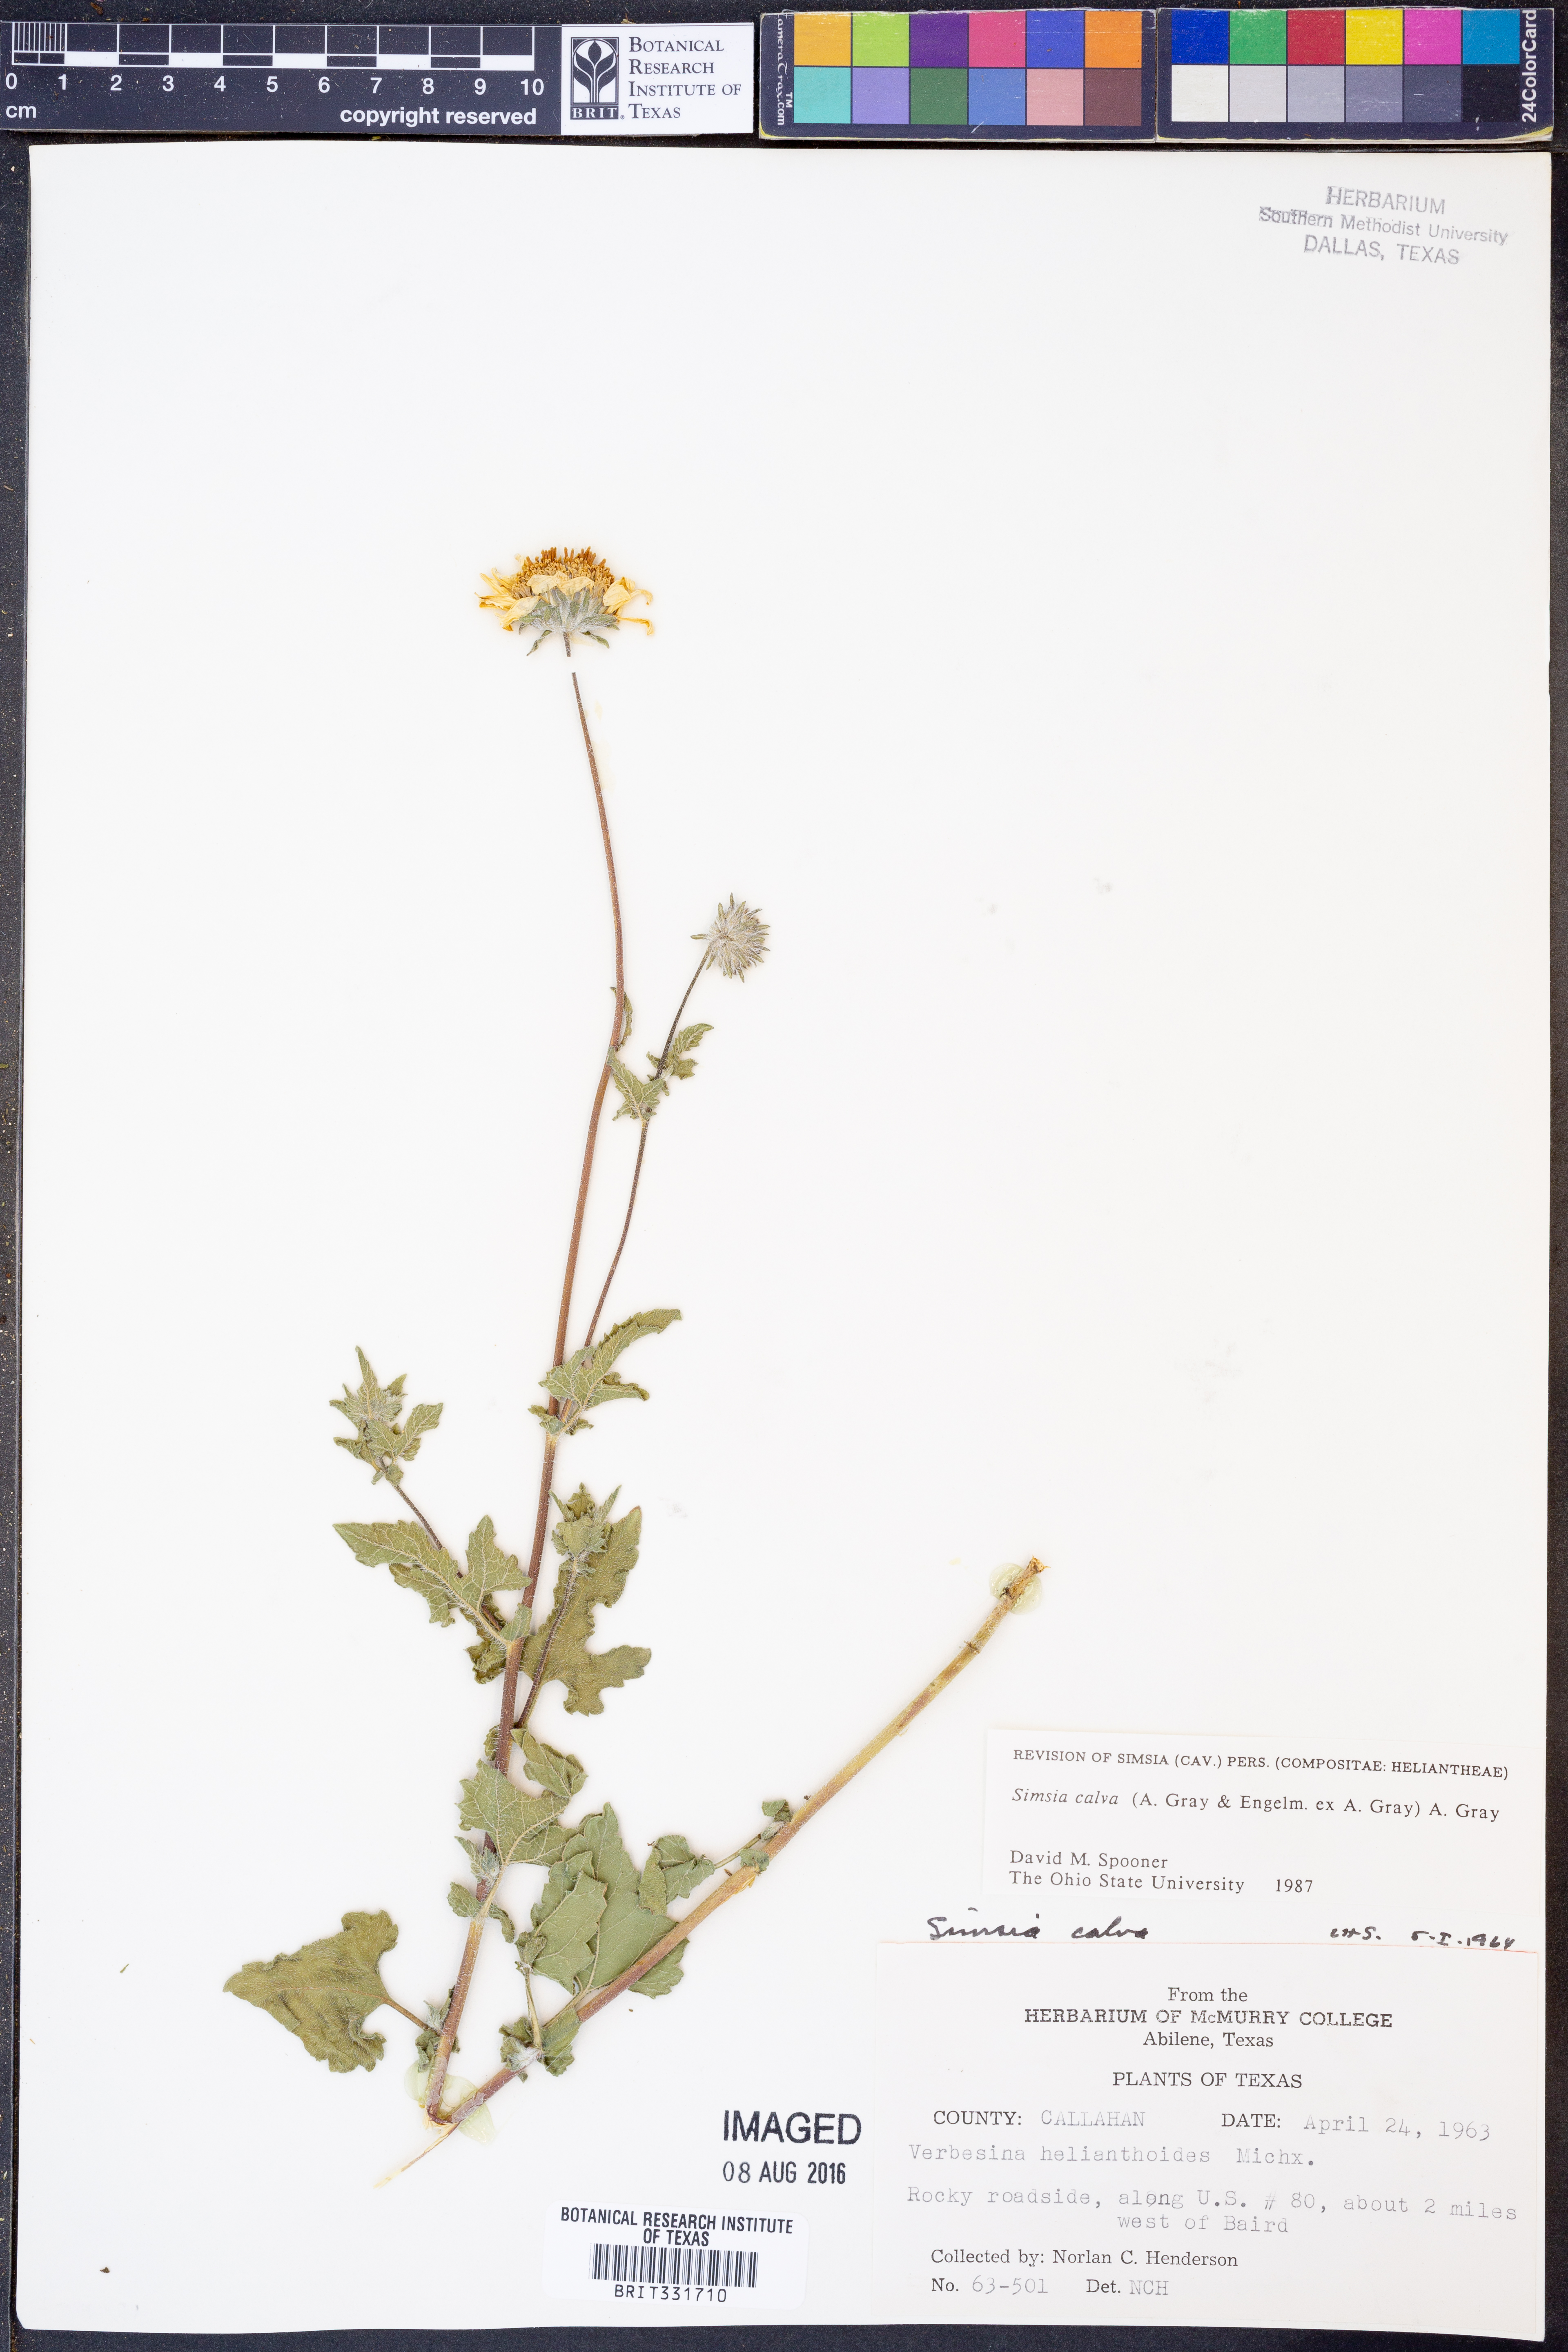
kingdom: Plantae
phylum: Tracheophyta
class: Magnoliopsida
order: Asterales
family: Asteraceae
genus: Simsia
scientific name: Simsia calva
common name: Awnless bush-sunflower
